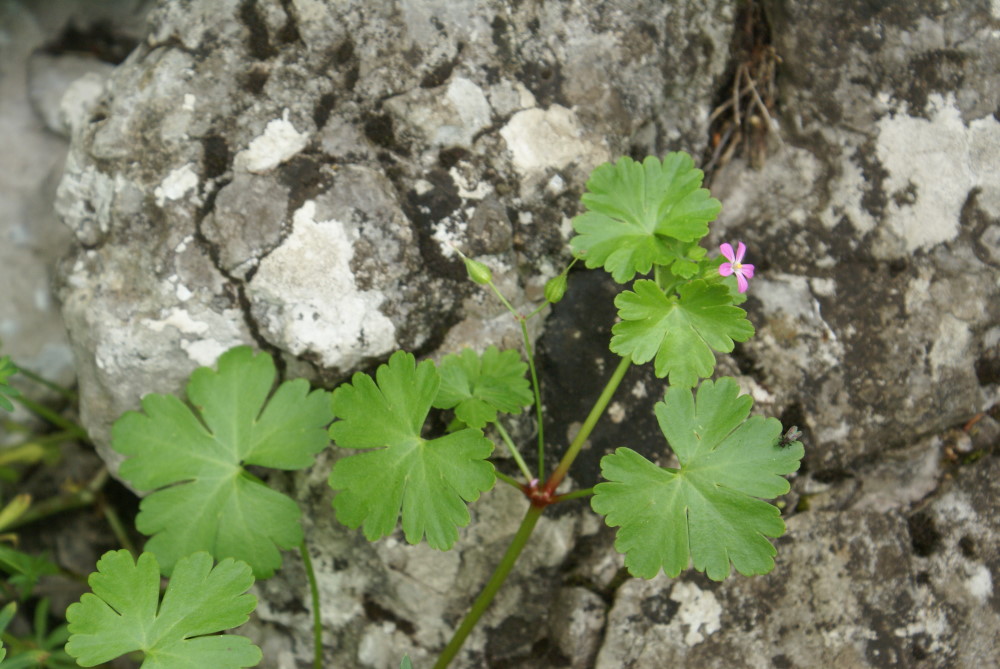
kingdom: Plantae
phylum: Tracheophyta
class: Magnoliopsida
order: Geraniales
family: Geraniaceae
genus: Geranium
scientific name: Geranium macrorrhizum
